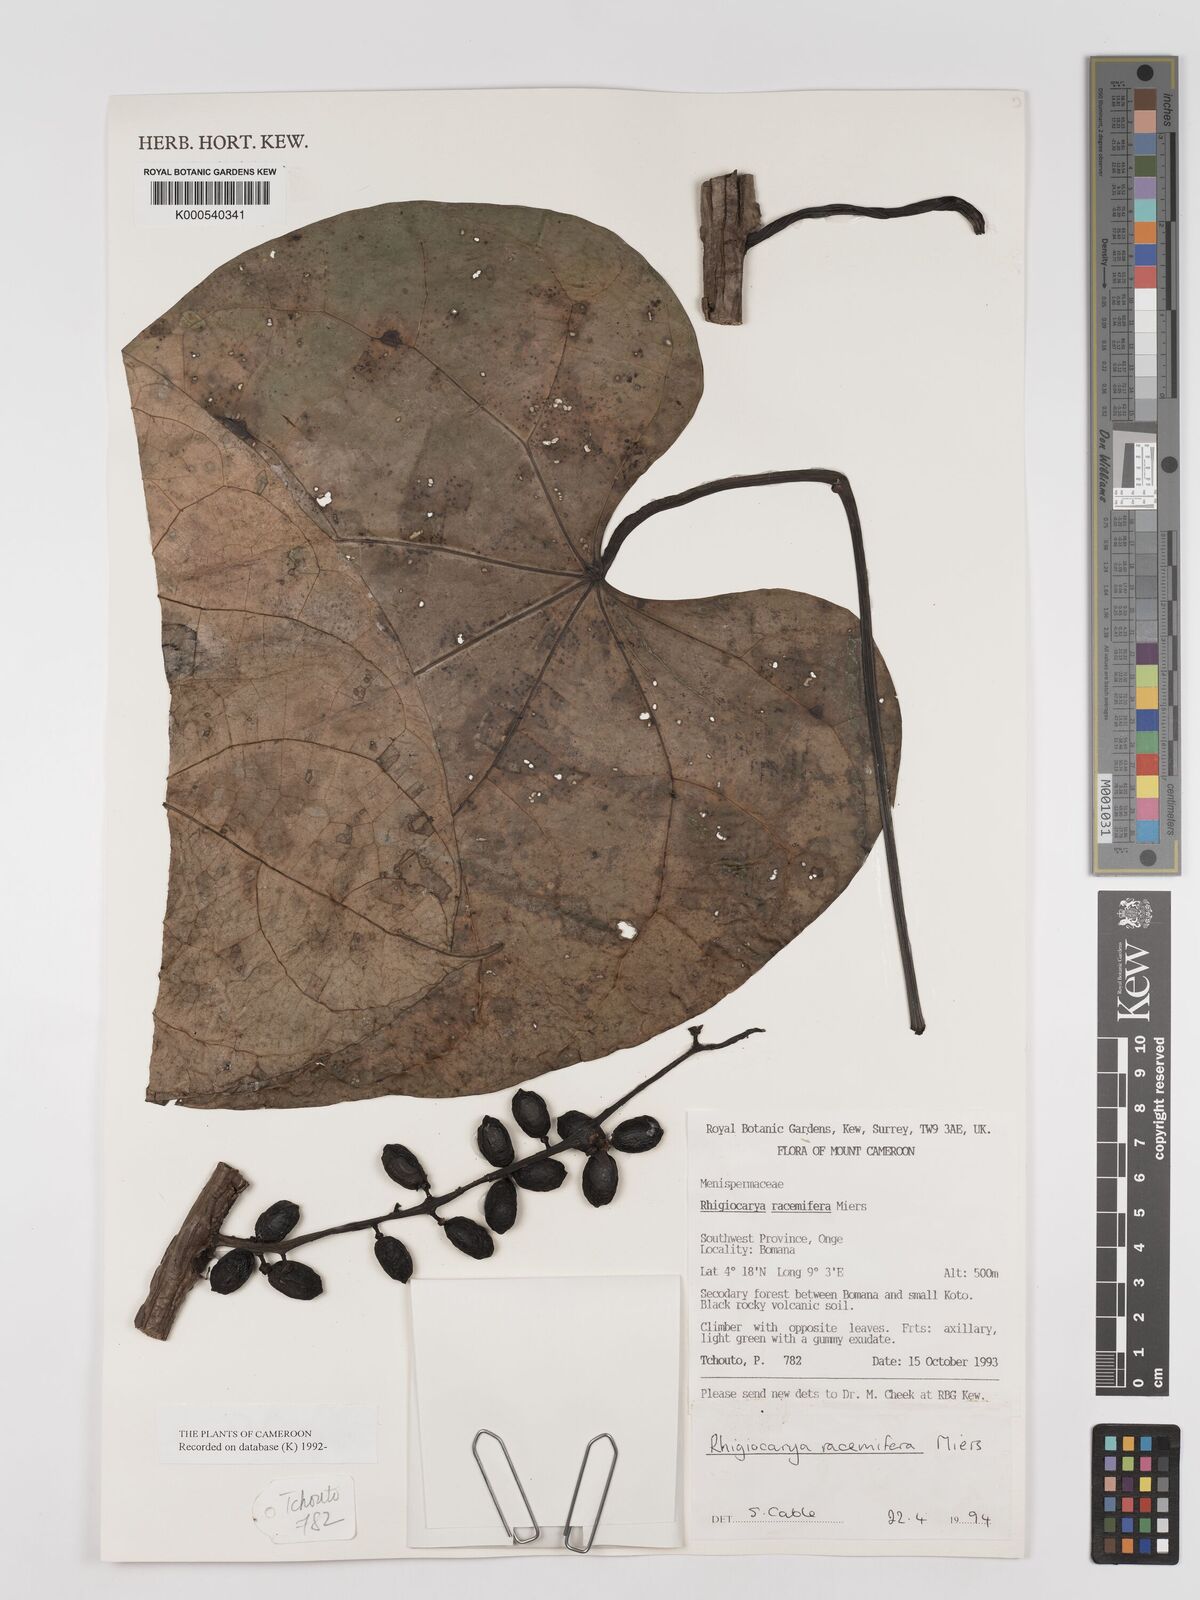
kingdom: Plantae
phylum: Tracheophyta
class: Magnoliopsida
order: Ranunculales
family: Menispermaceae
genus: Rhigiocarya
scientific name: Rhigiocarya racemifera
